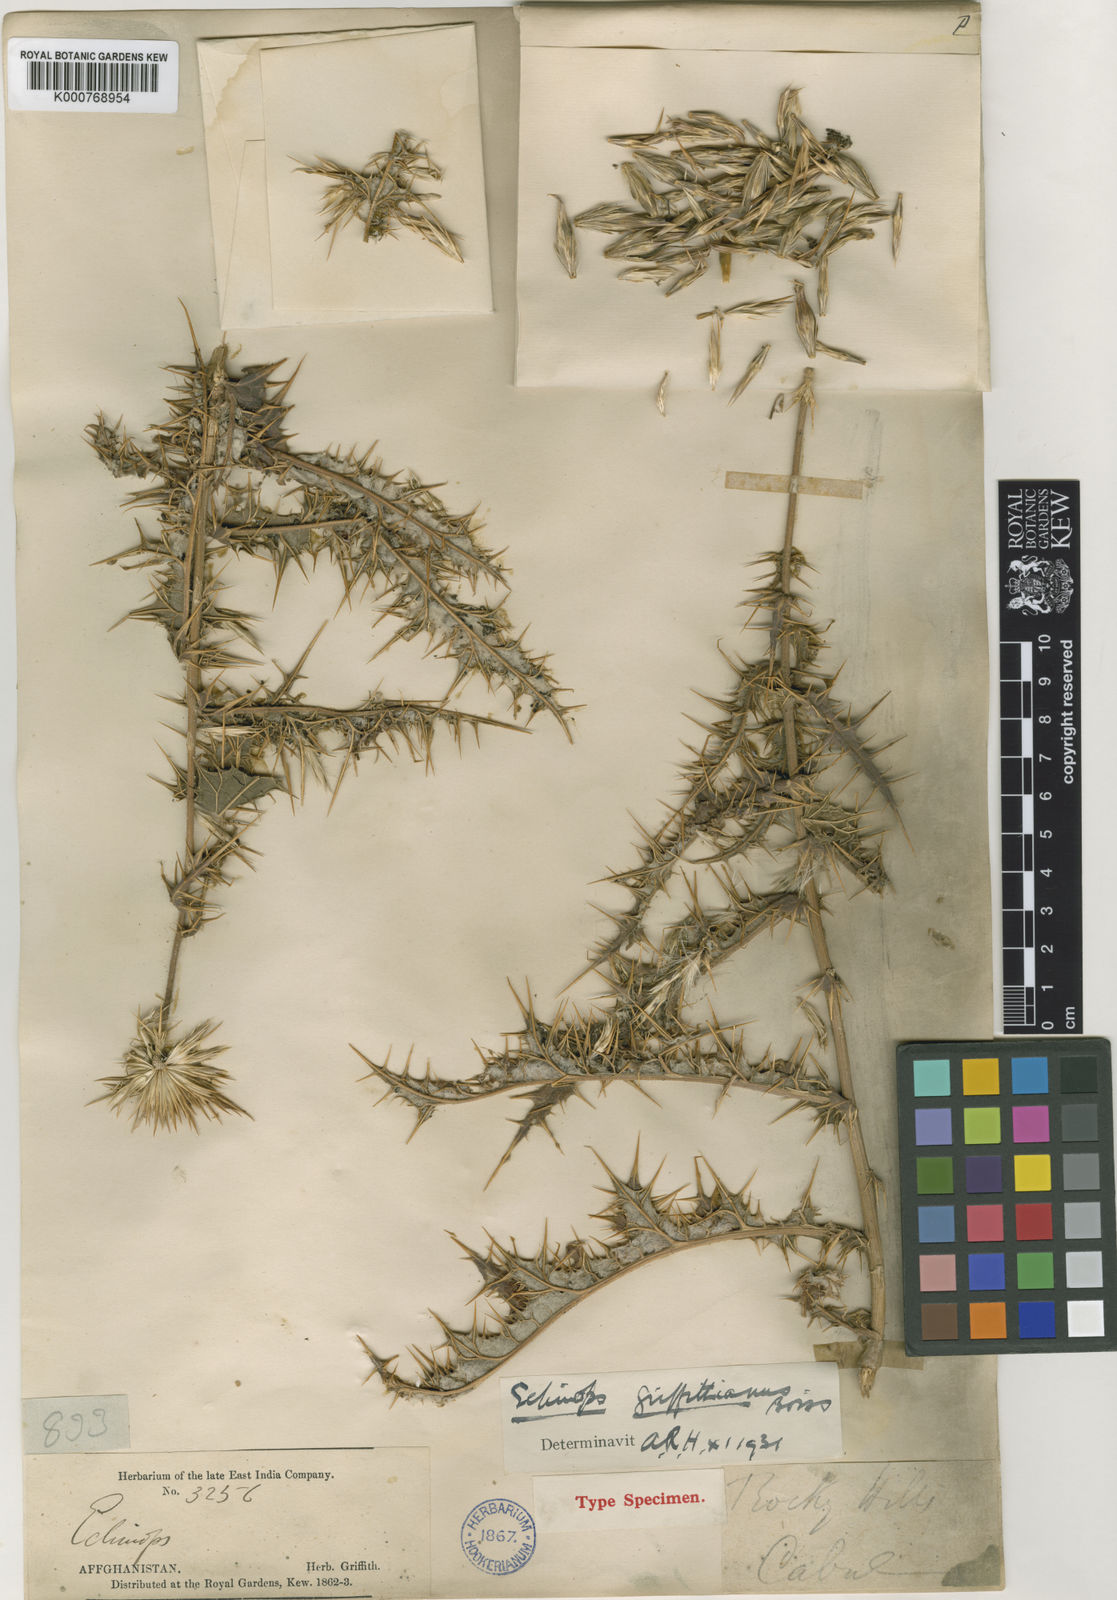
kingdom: Plantae
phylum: Tracheophyta
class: Magnoliopsida
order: Asterales
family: Asteraceae
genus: Echinops
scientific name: Echinops griffithianus
